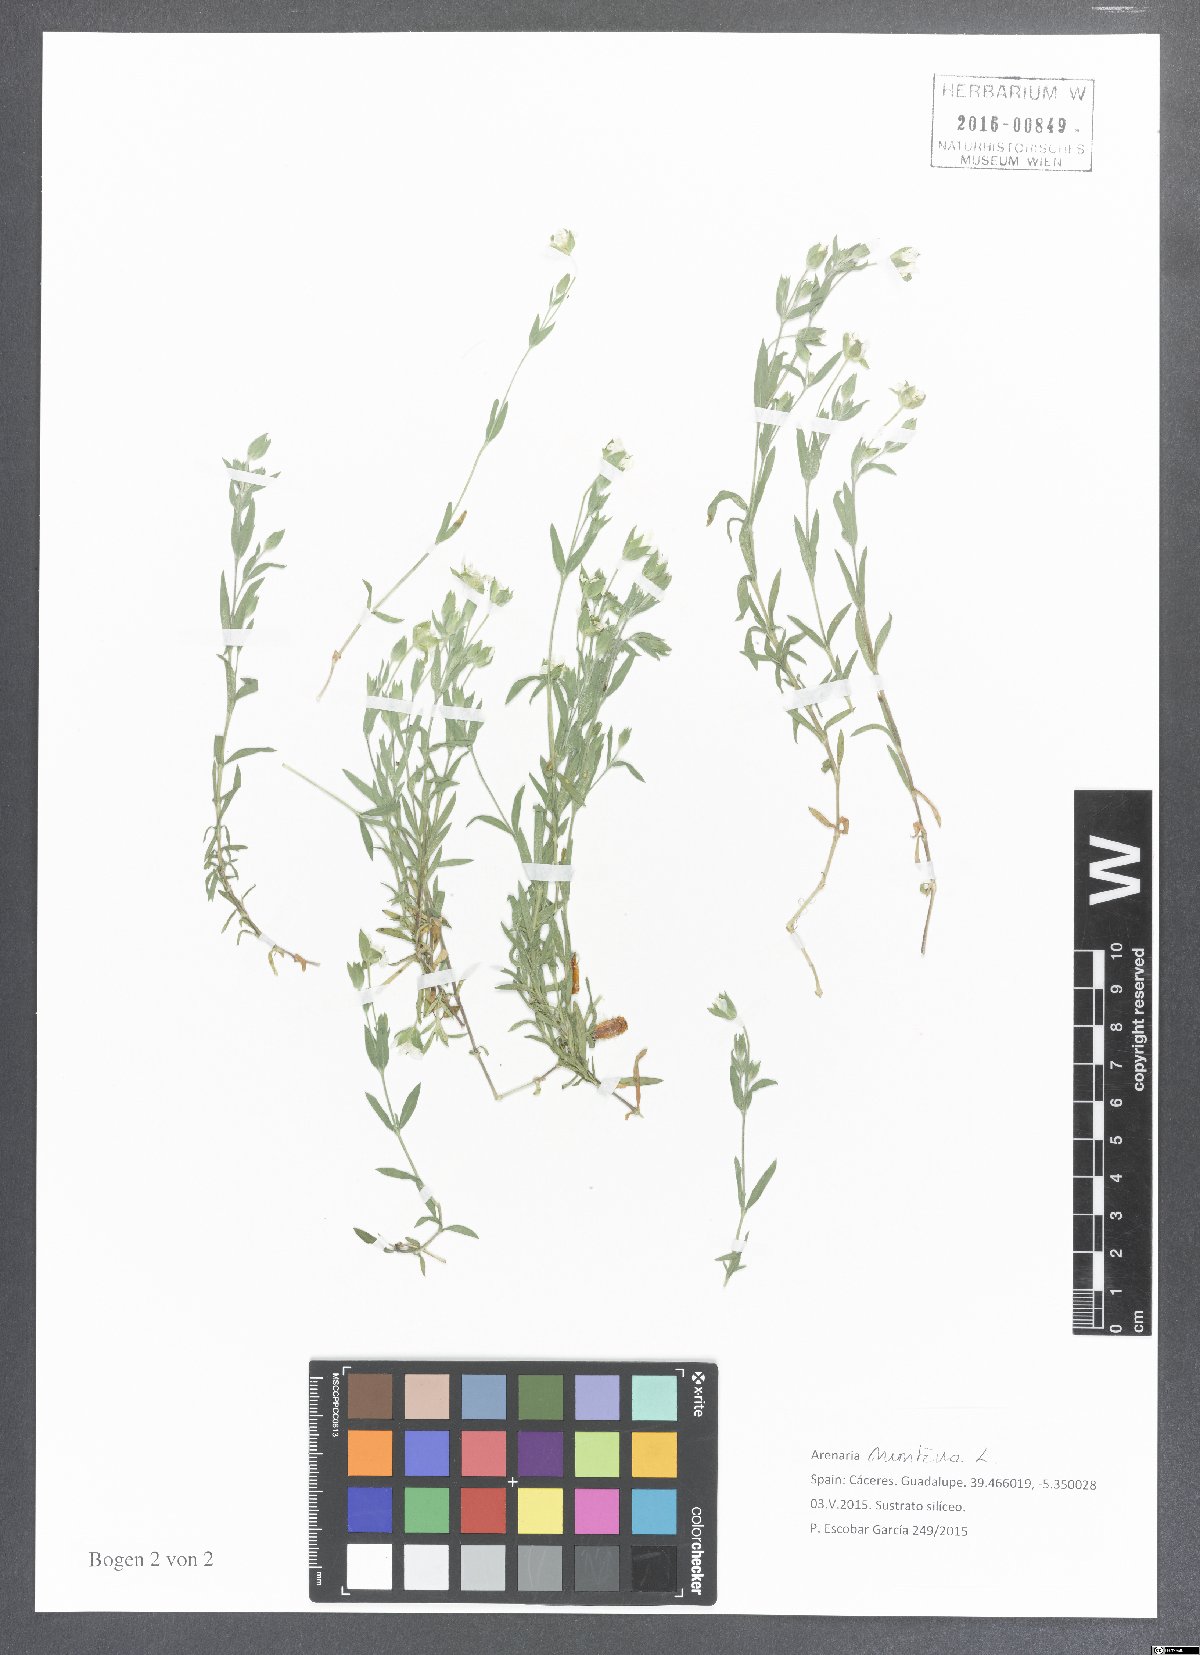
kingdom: Plantae
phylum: Tracheophyta
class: Magnoliopsida
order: Caryophyllales
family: Caryophyllaceae
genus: Arenaria
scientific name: Arenaria montana
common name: Mountain sandwort
